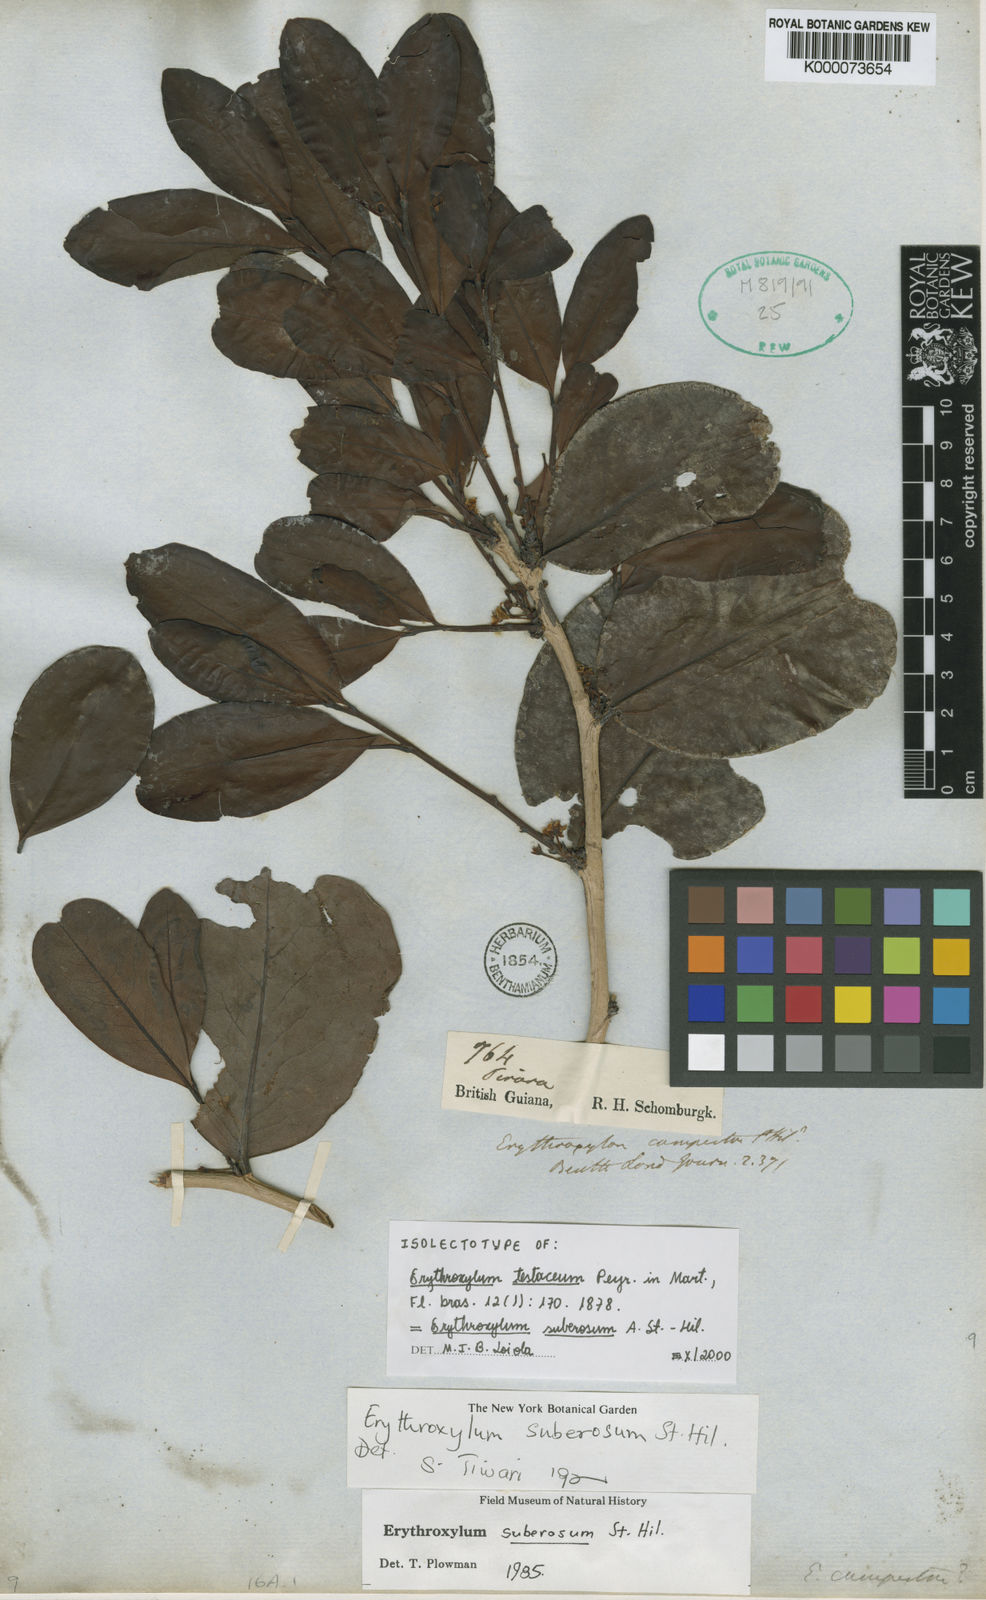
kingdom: Plantae
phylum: Tracheophyta
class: Magnoliopsida
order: Malpighiales
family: Erythroxylaceae
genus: Erythroxylum
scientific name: Erythroxylum suberosum
